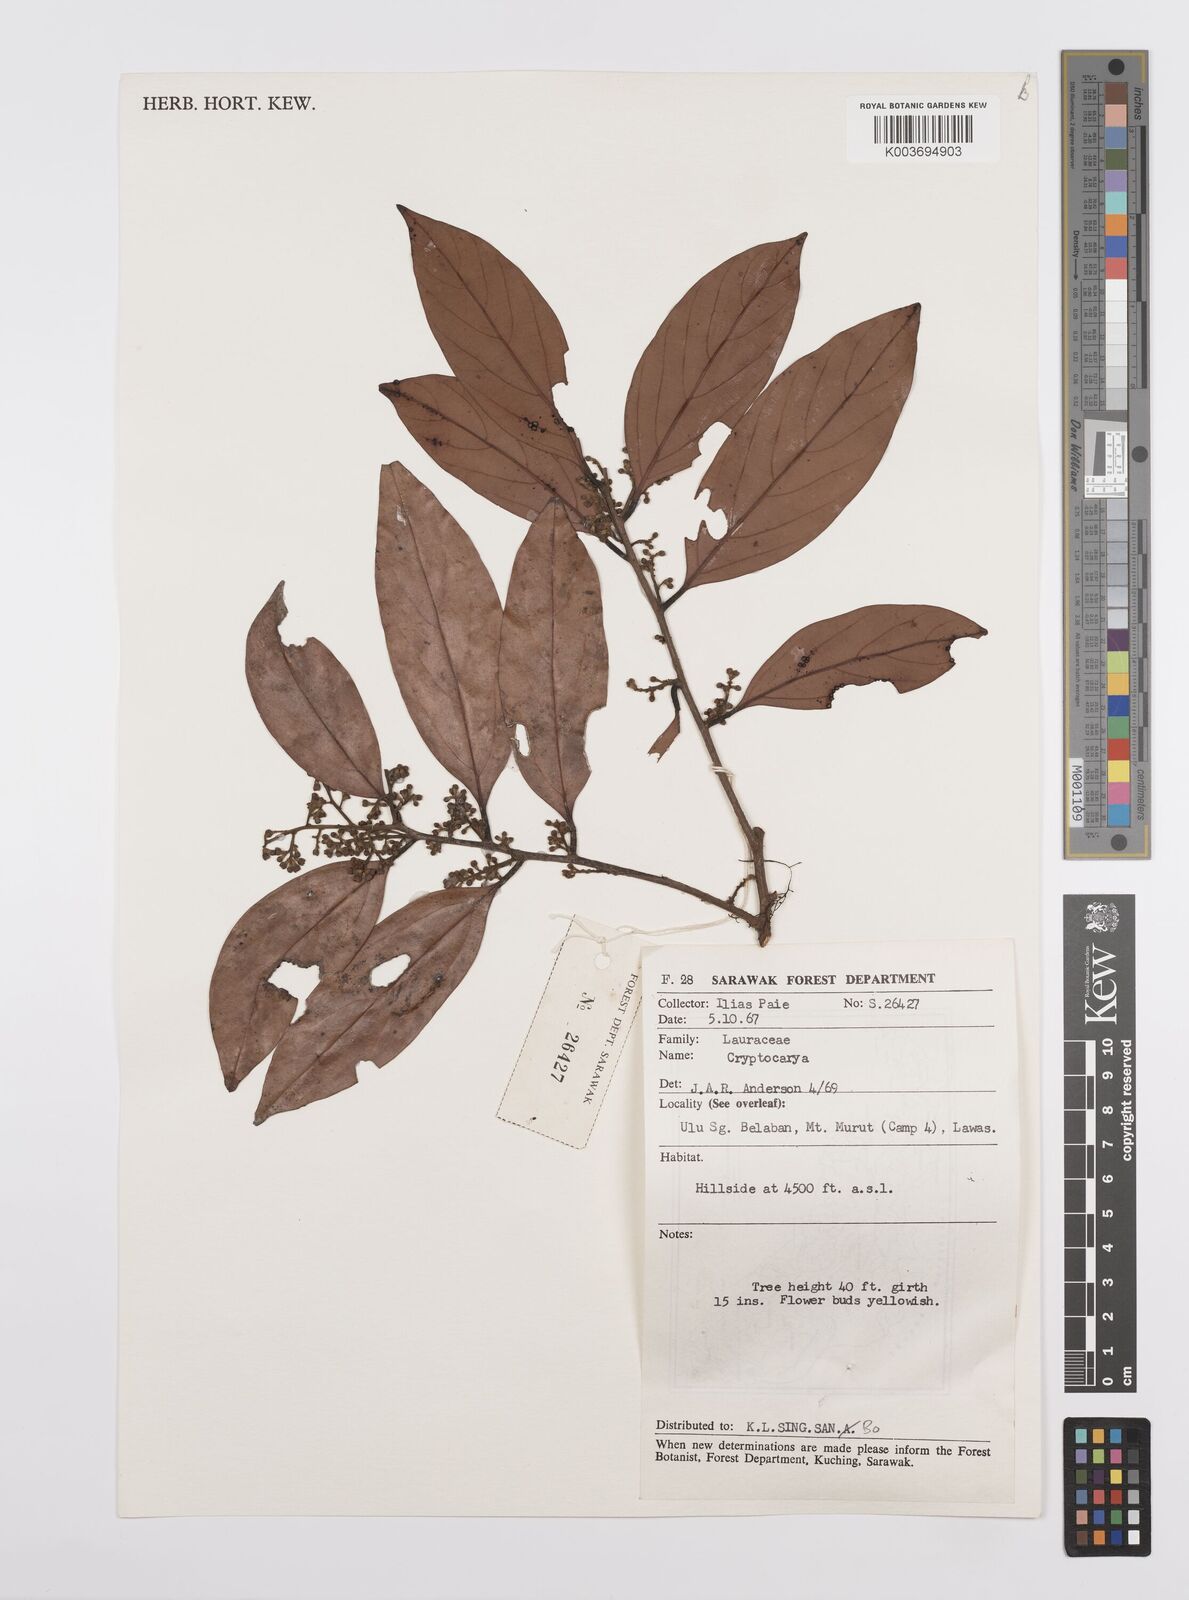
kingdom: Plantae
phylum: Tracheophyta
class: Magnoliopsida
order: Laurales
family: Lauraceae
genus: Cryptocarya
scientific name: Cryptocarya
